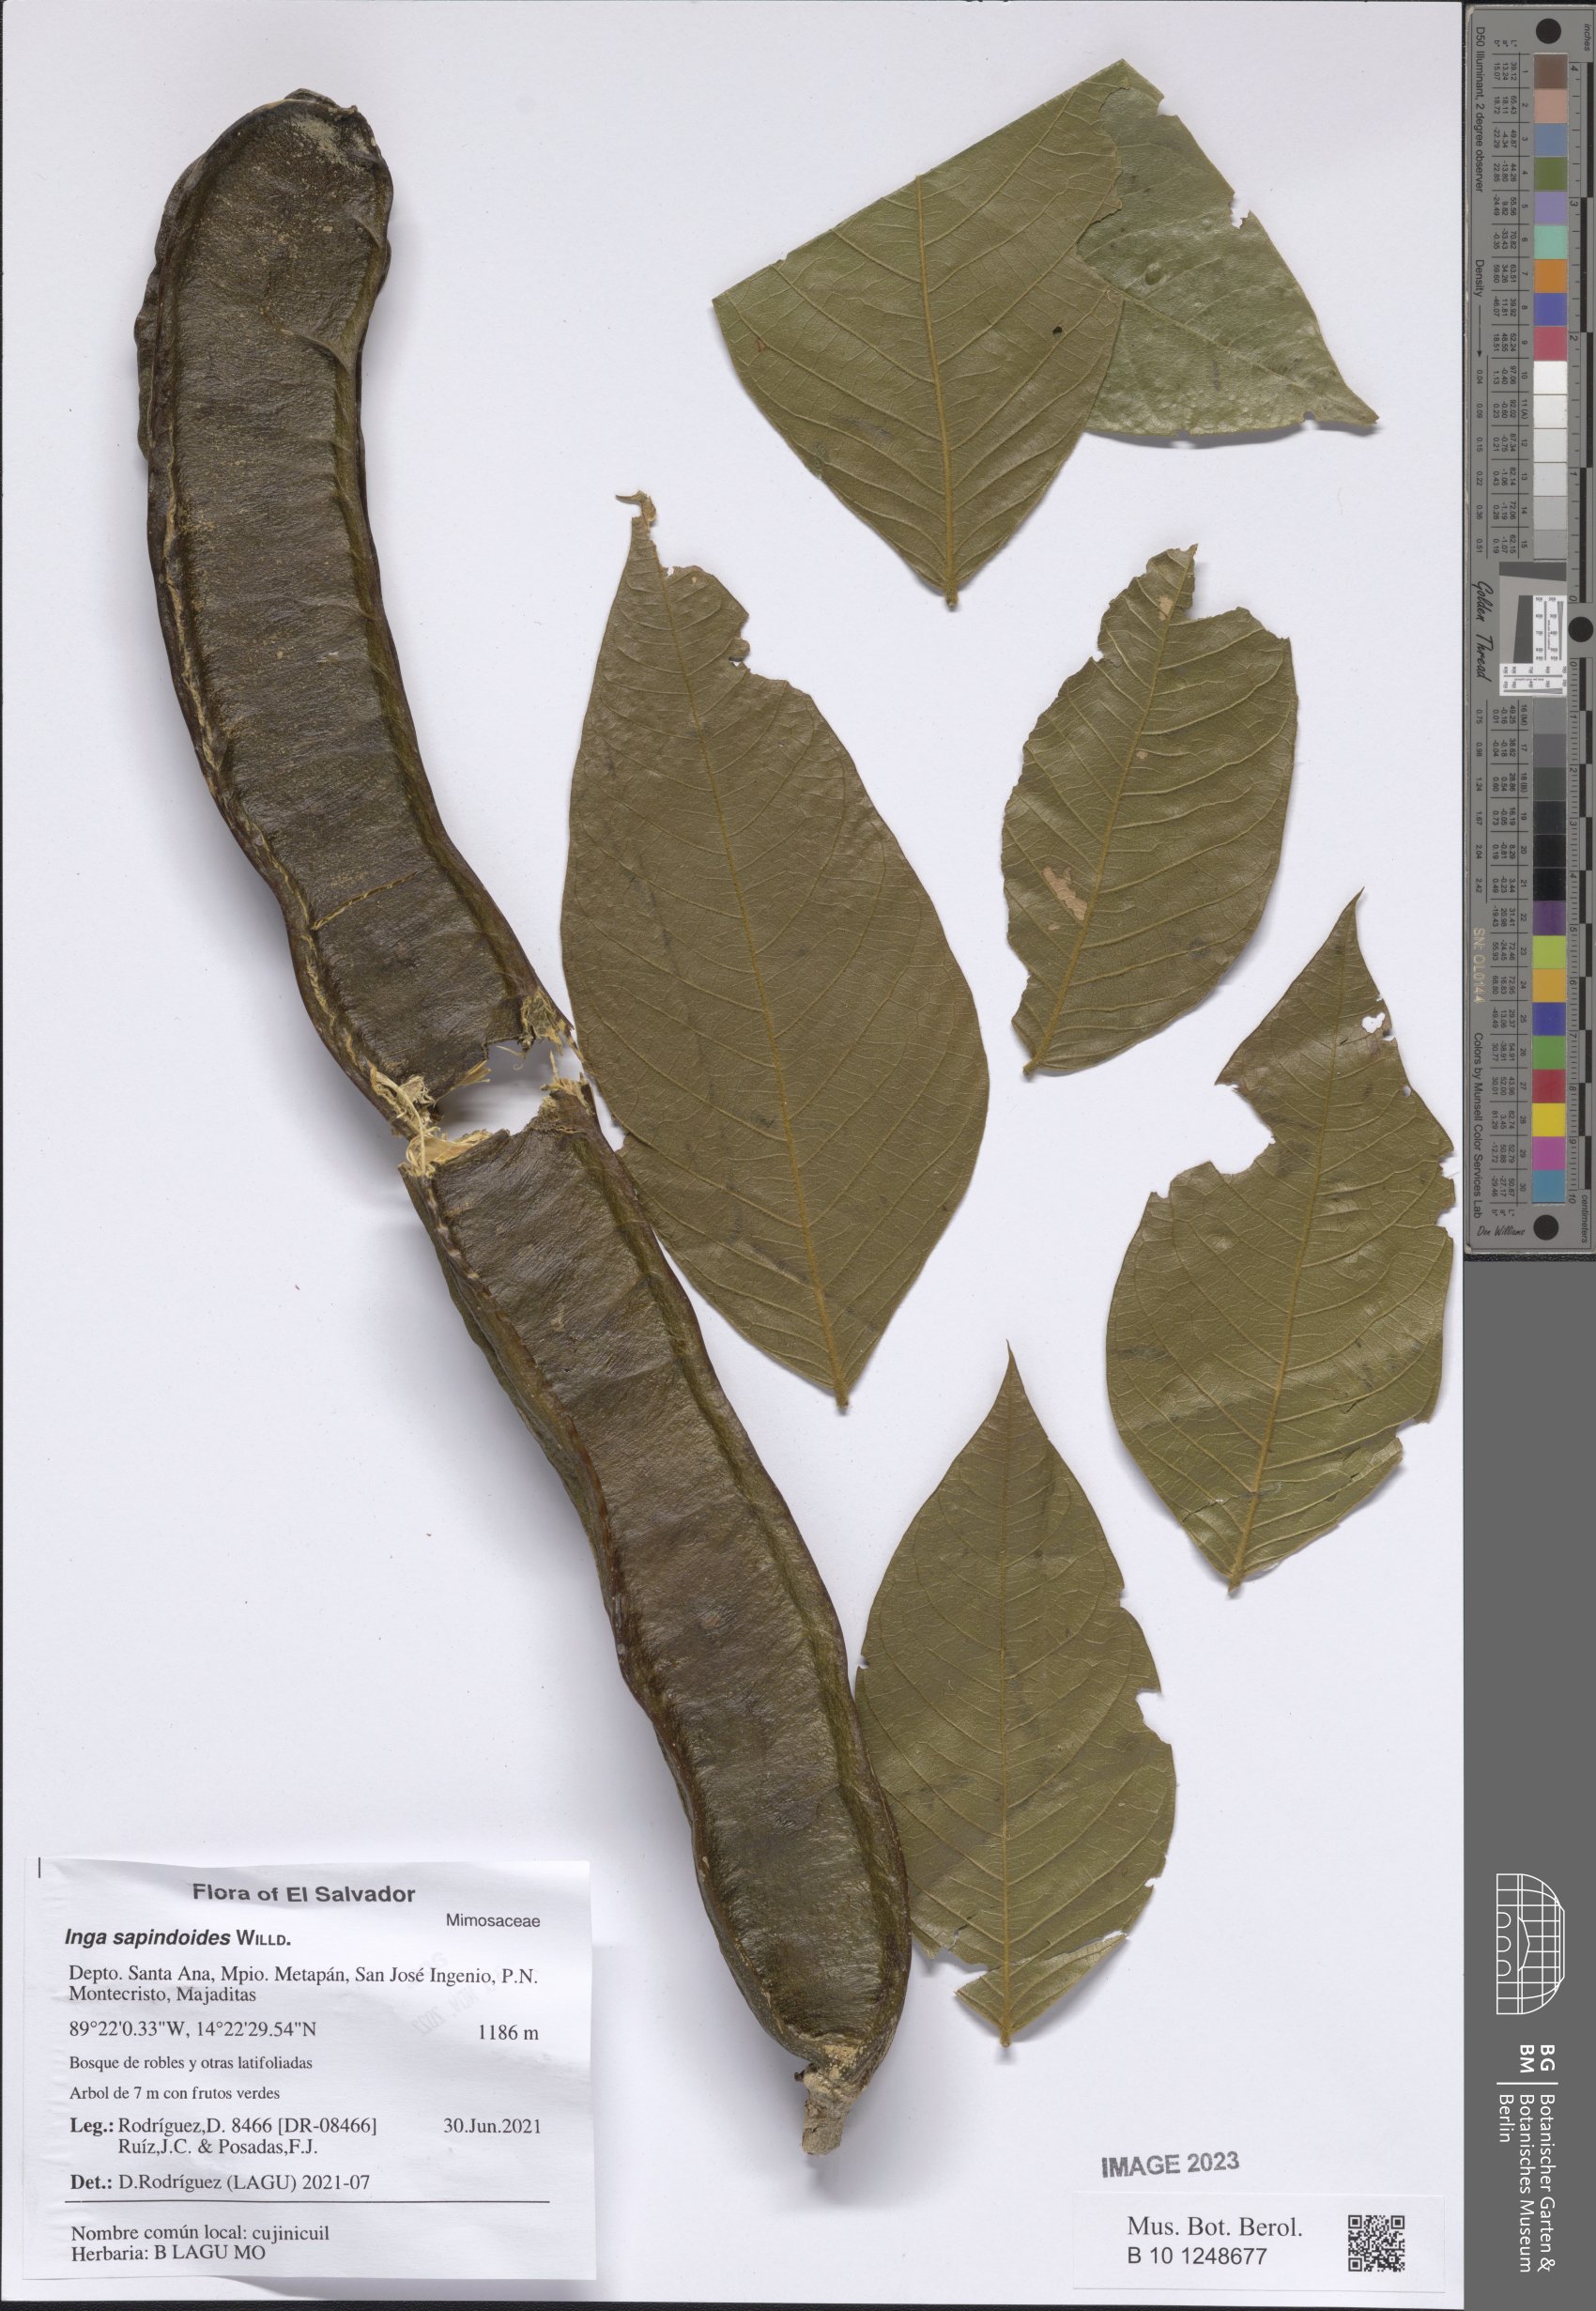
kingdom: Plantae
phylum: Tracheophyta
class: Magnoliopsida
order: Fabales
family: Fabaceae
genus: Inga
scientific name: Inga sapindoides
